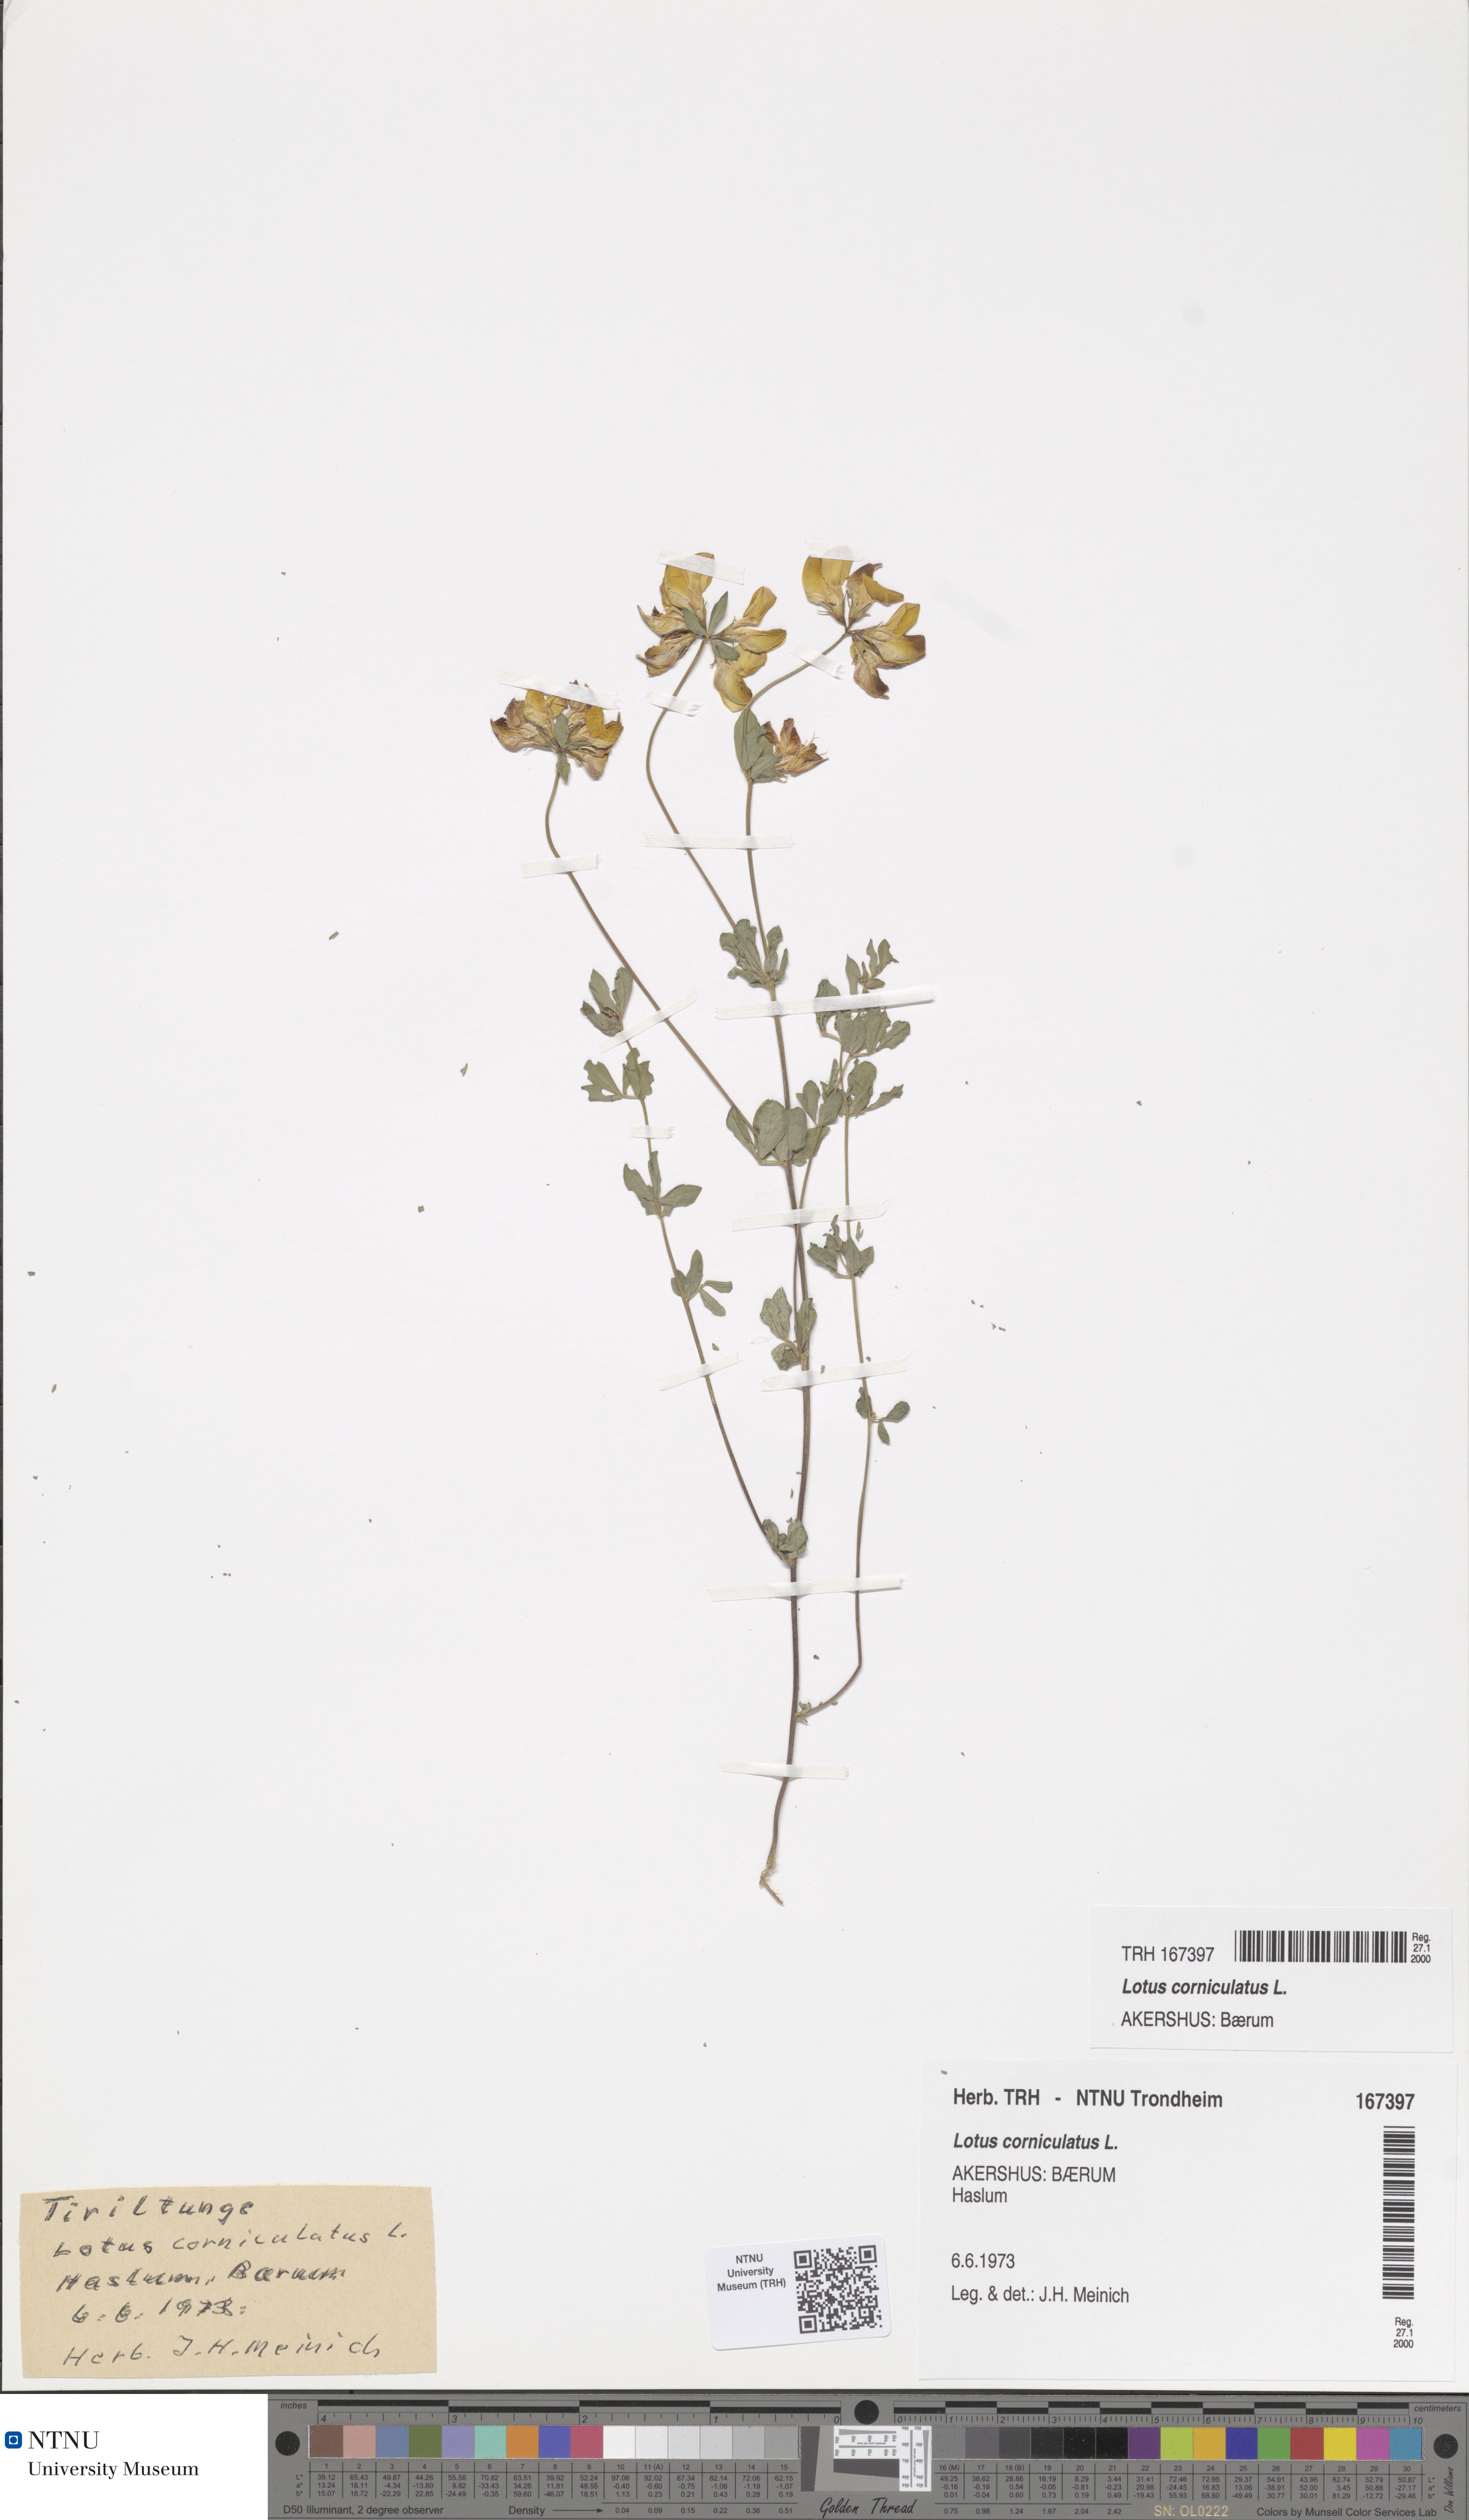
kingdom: Plantae
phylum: Tracheophyta
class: Magnoliopsida
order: Fabales
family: Fabaceae
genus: Lotus
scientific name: Lotus corniculatus
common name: Common bird's-foot-trefoil
